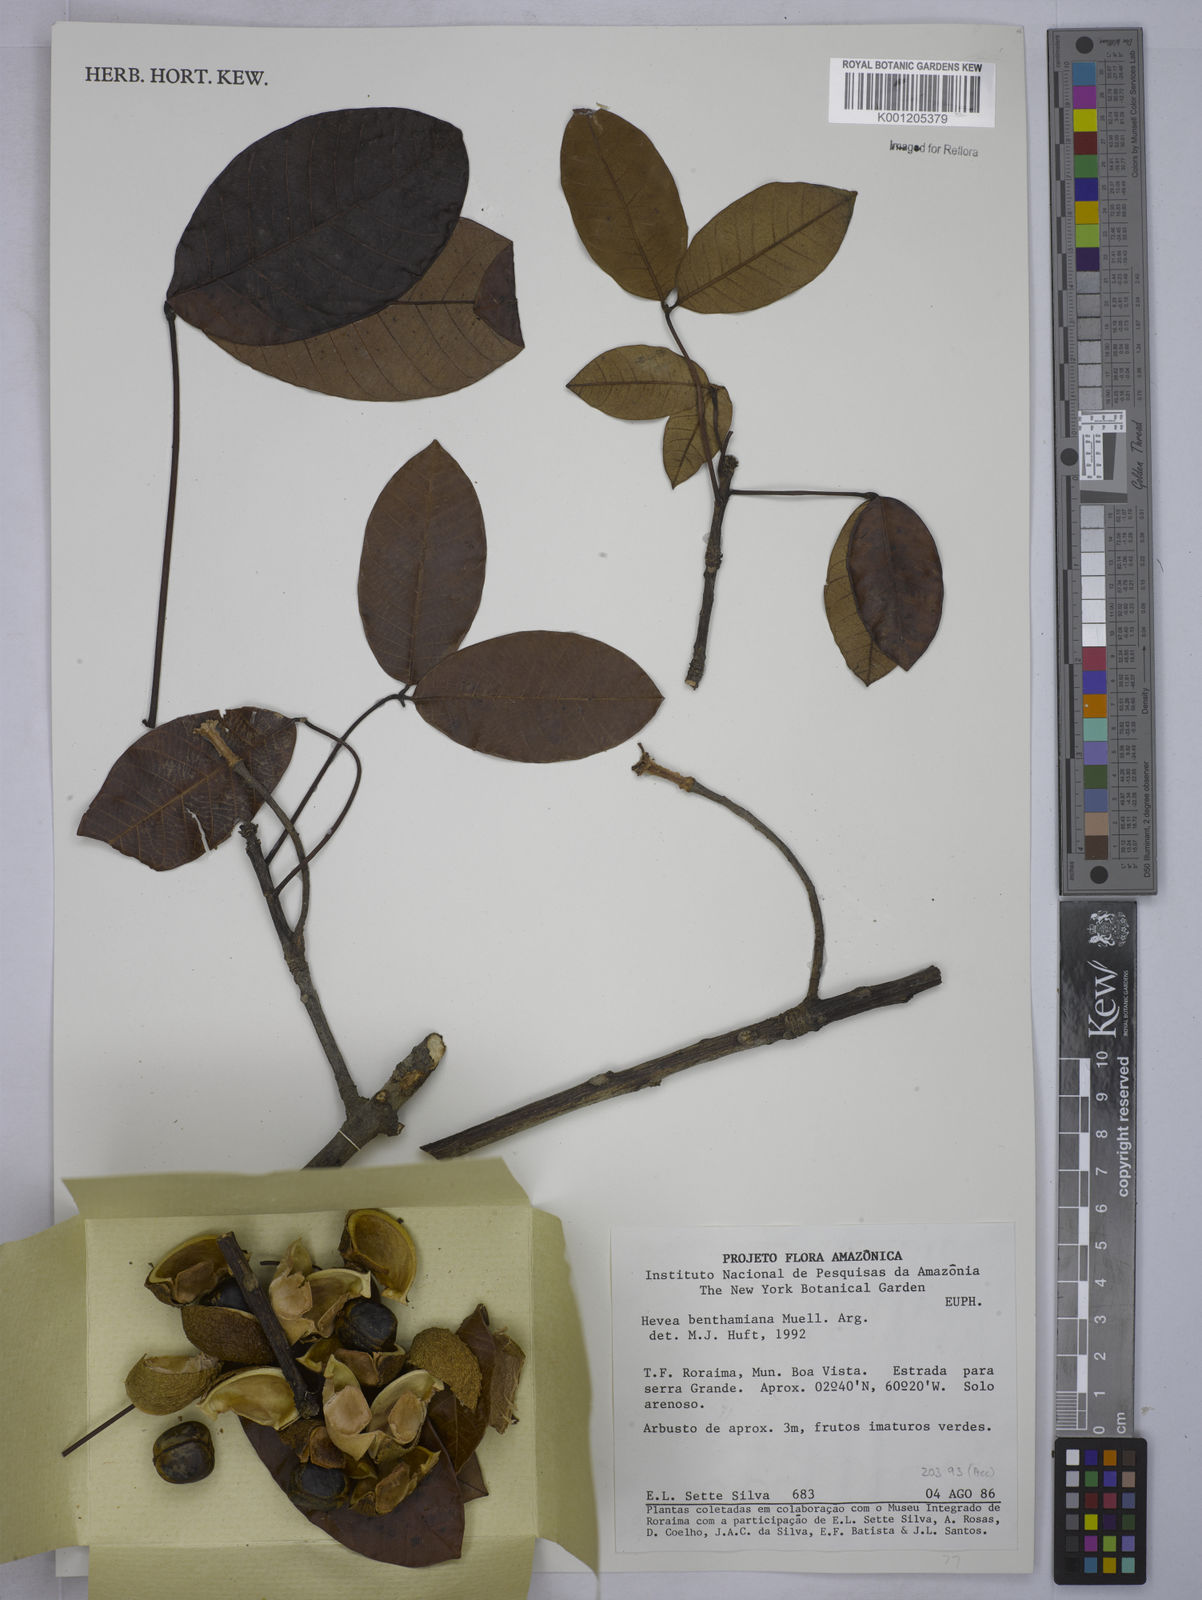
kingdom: Plantae
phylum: Tracheophyta
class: Magnoliopsida
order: Malpighiales
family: Euphorbiaceae
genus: Hevea
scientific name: Hevea
